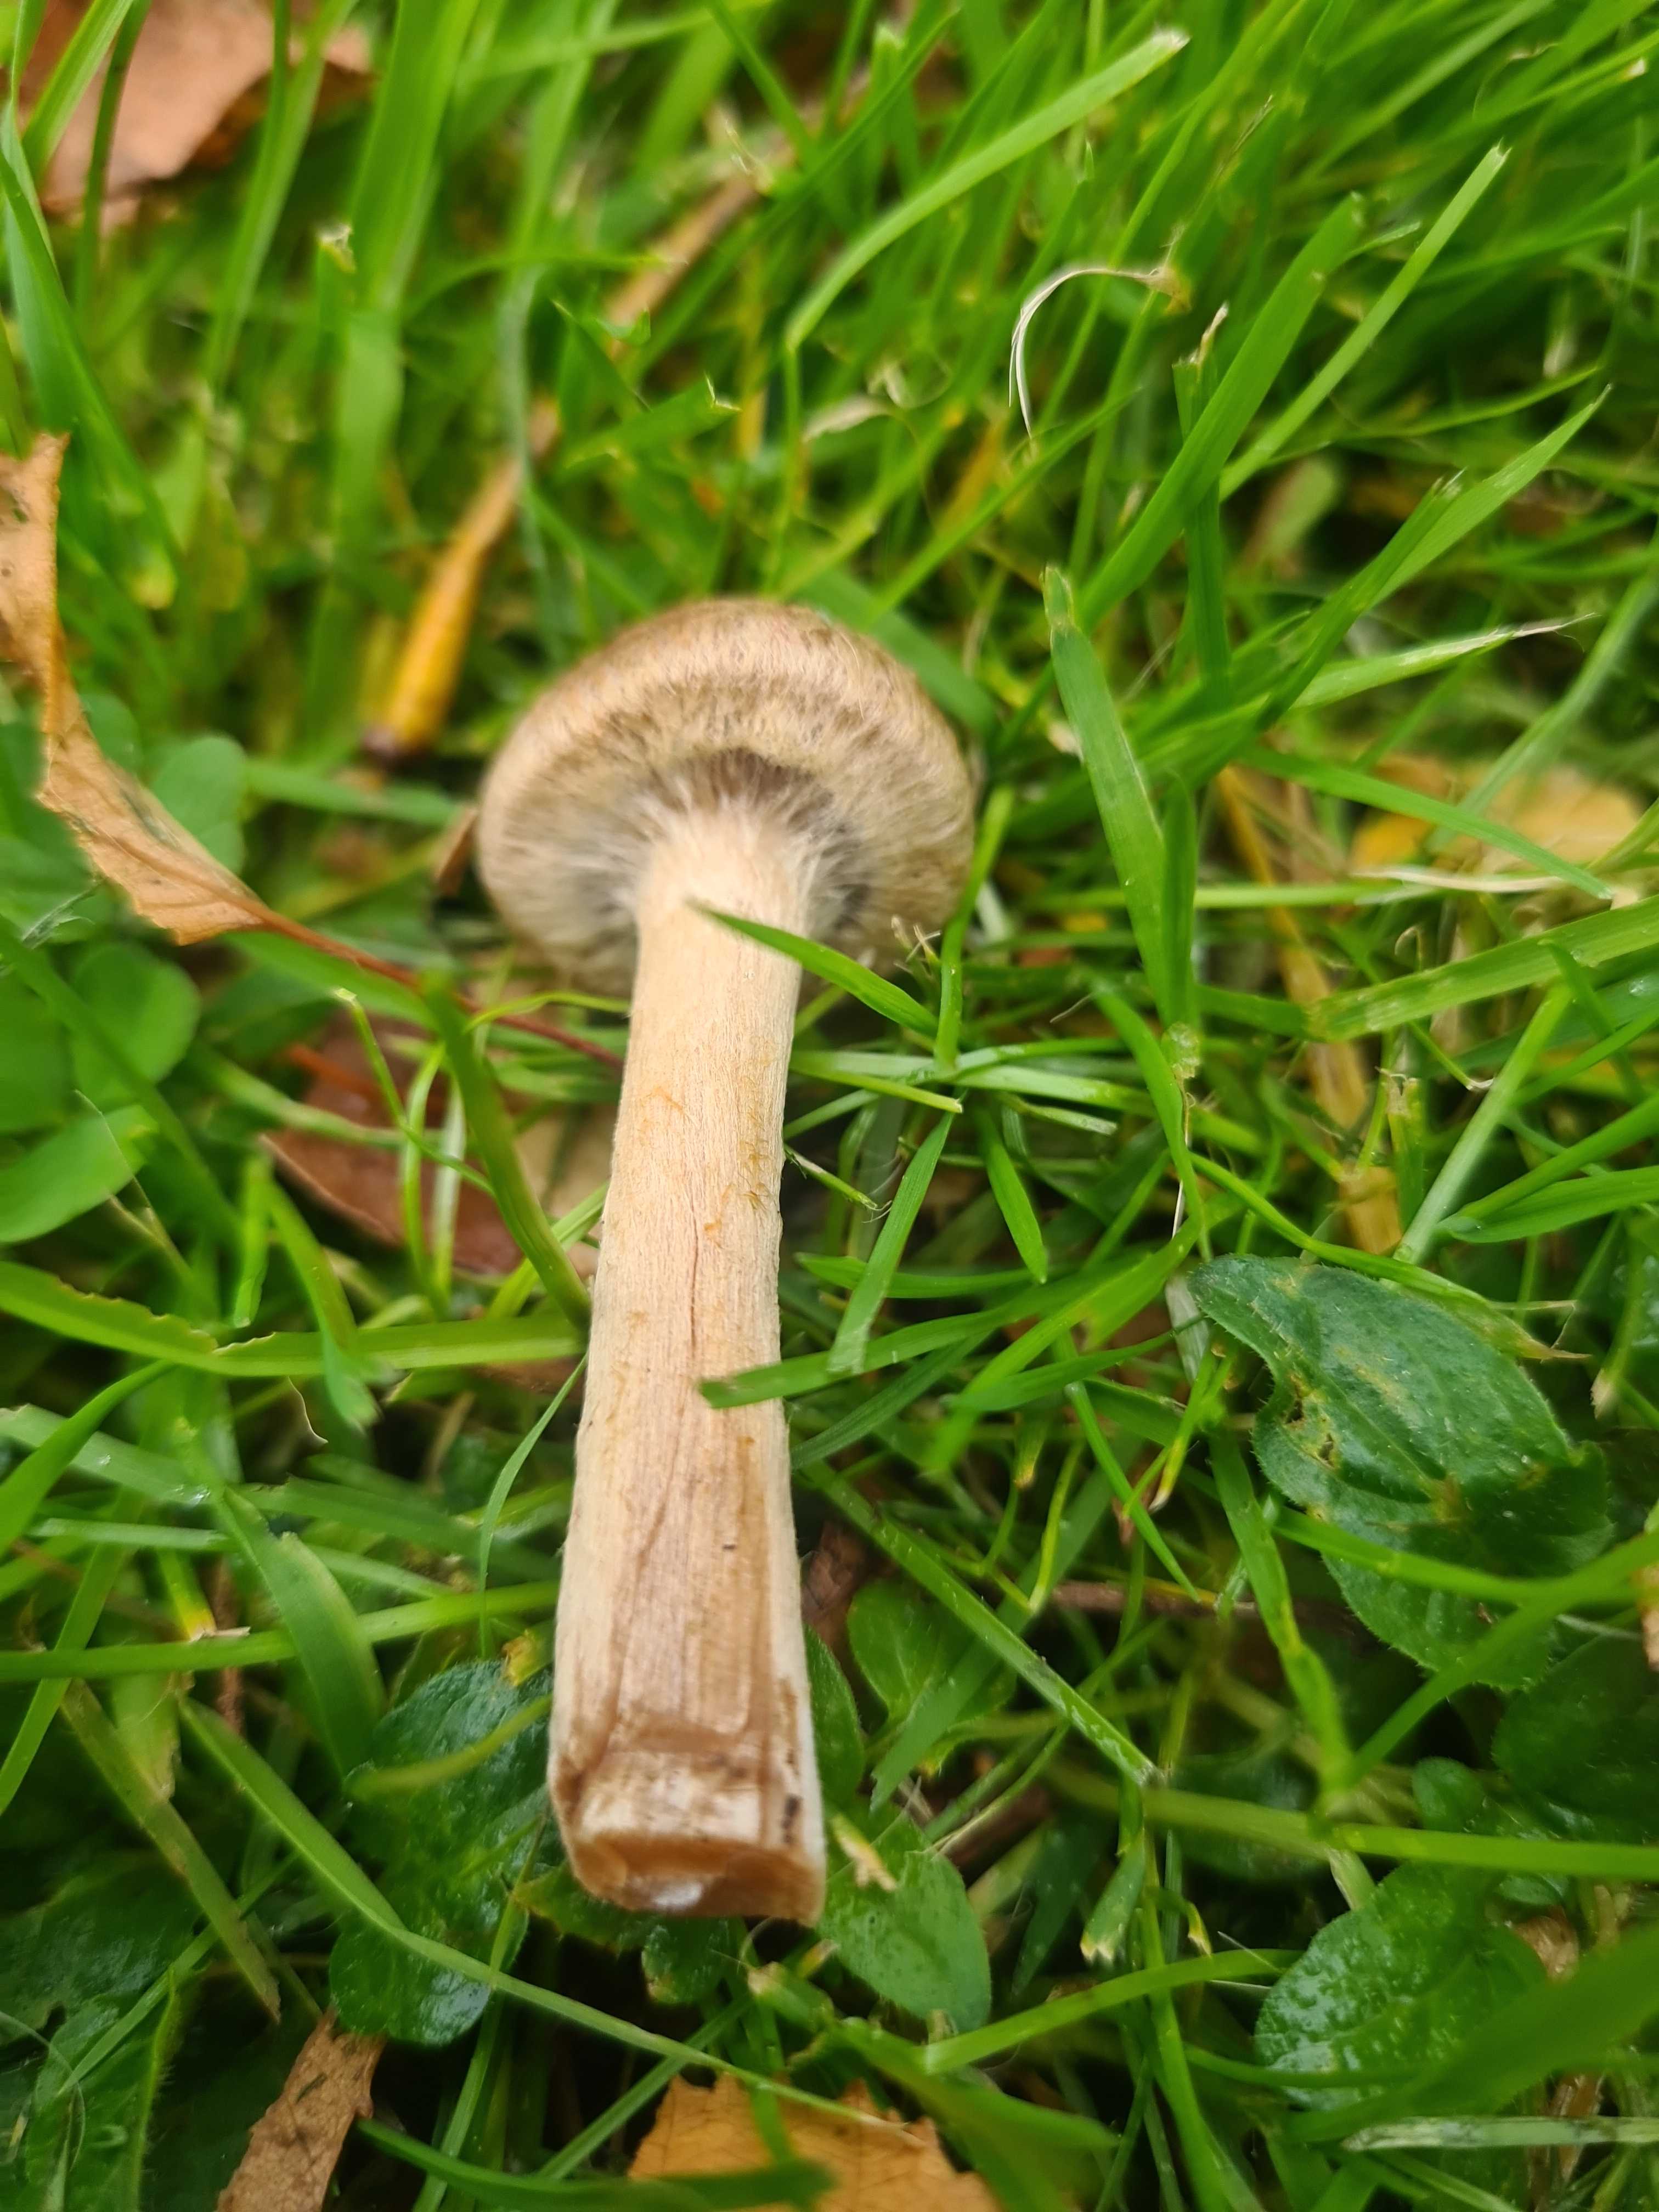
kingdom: Fungi
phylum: Basidiomycota
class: Agaricomycetes
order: Agaricales
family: Psathyrellaceae
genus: Lacrymaria
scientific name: Lacrymaria lacrymabunda
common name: grædende mørkhat
